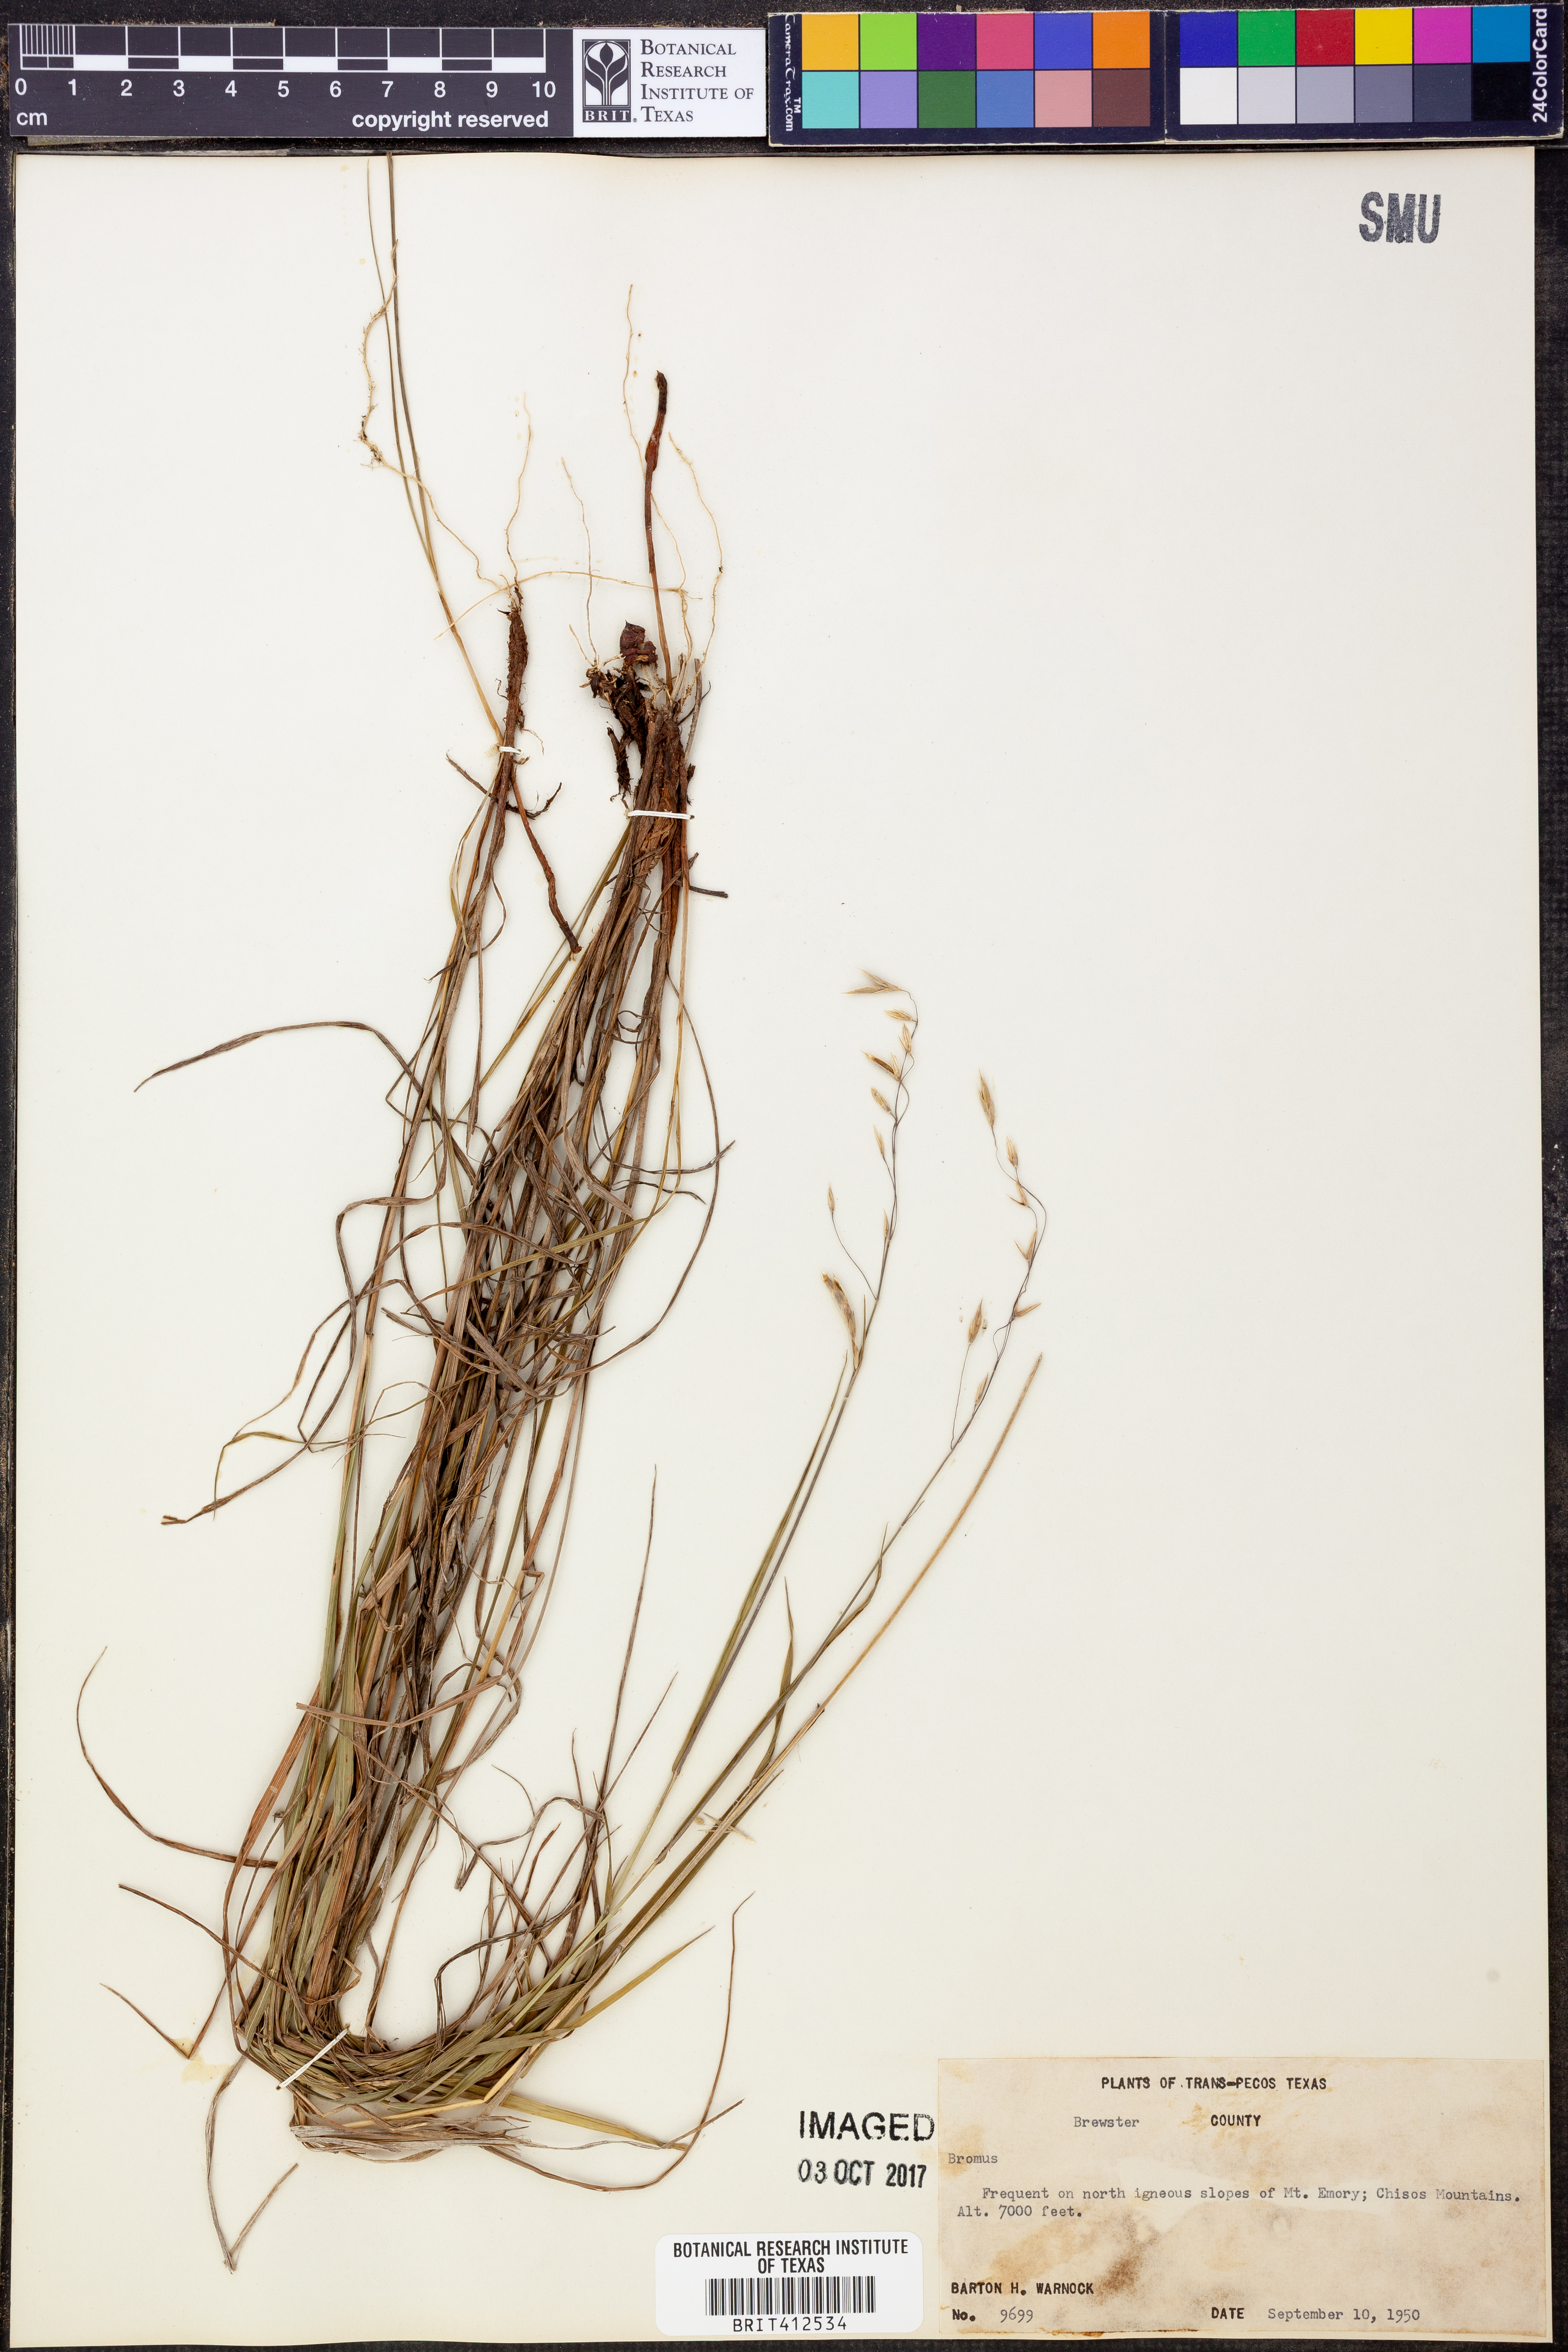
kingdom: Plantae
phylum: Tracheophyta
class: Liliopsida
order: Poales
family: Poaceae
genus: Bromus
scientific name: Bromus
